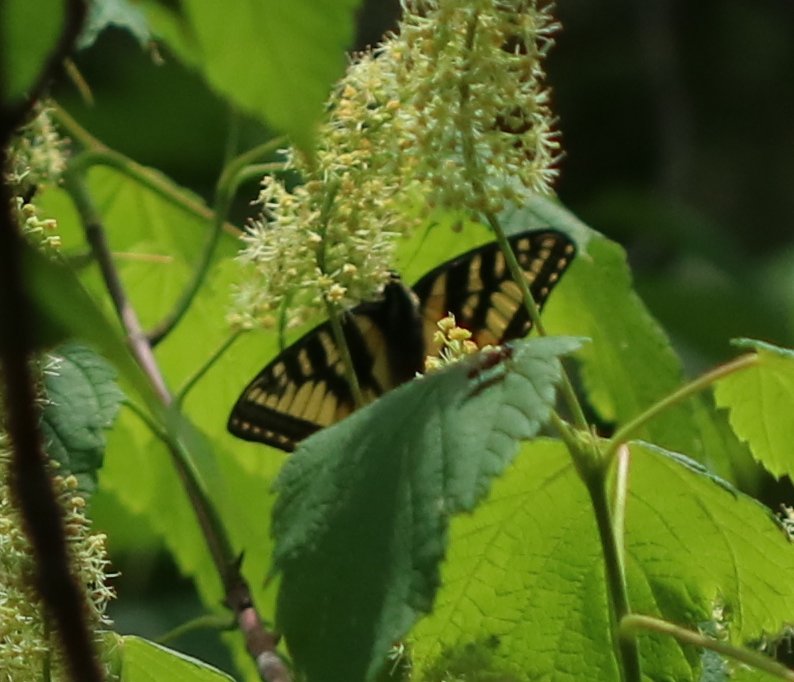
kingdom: Animalia
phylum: Arthropoda
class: Insecta
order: Lepidoptera
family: Papilionidae
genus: Pterourus
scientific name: Pterourus canadensis
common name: Canadian Tiger Swallowtail
